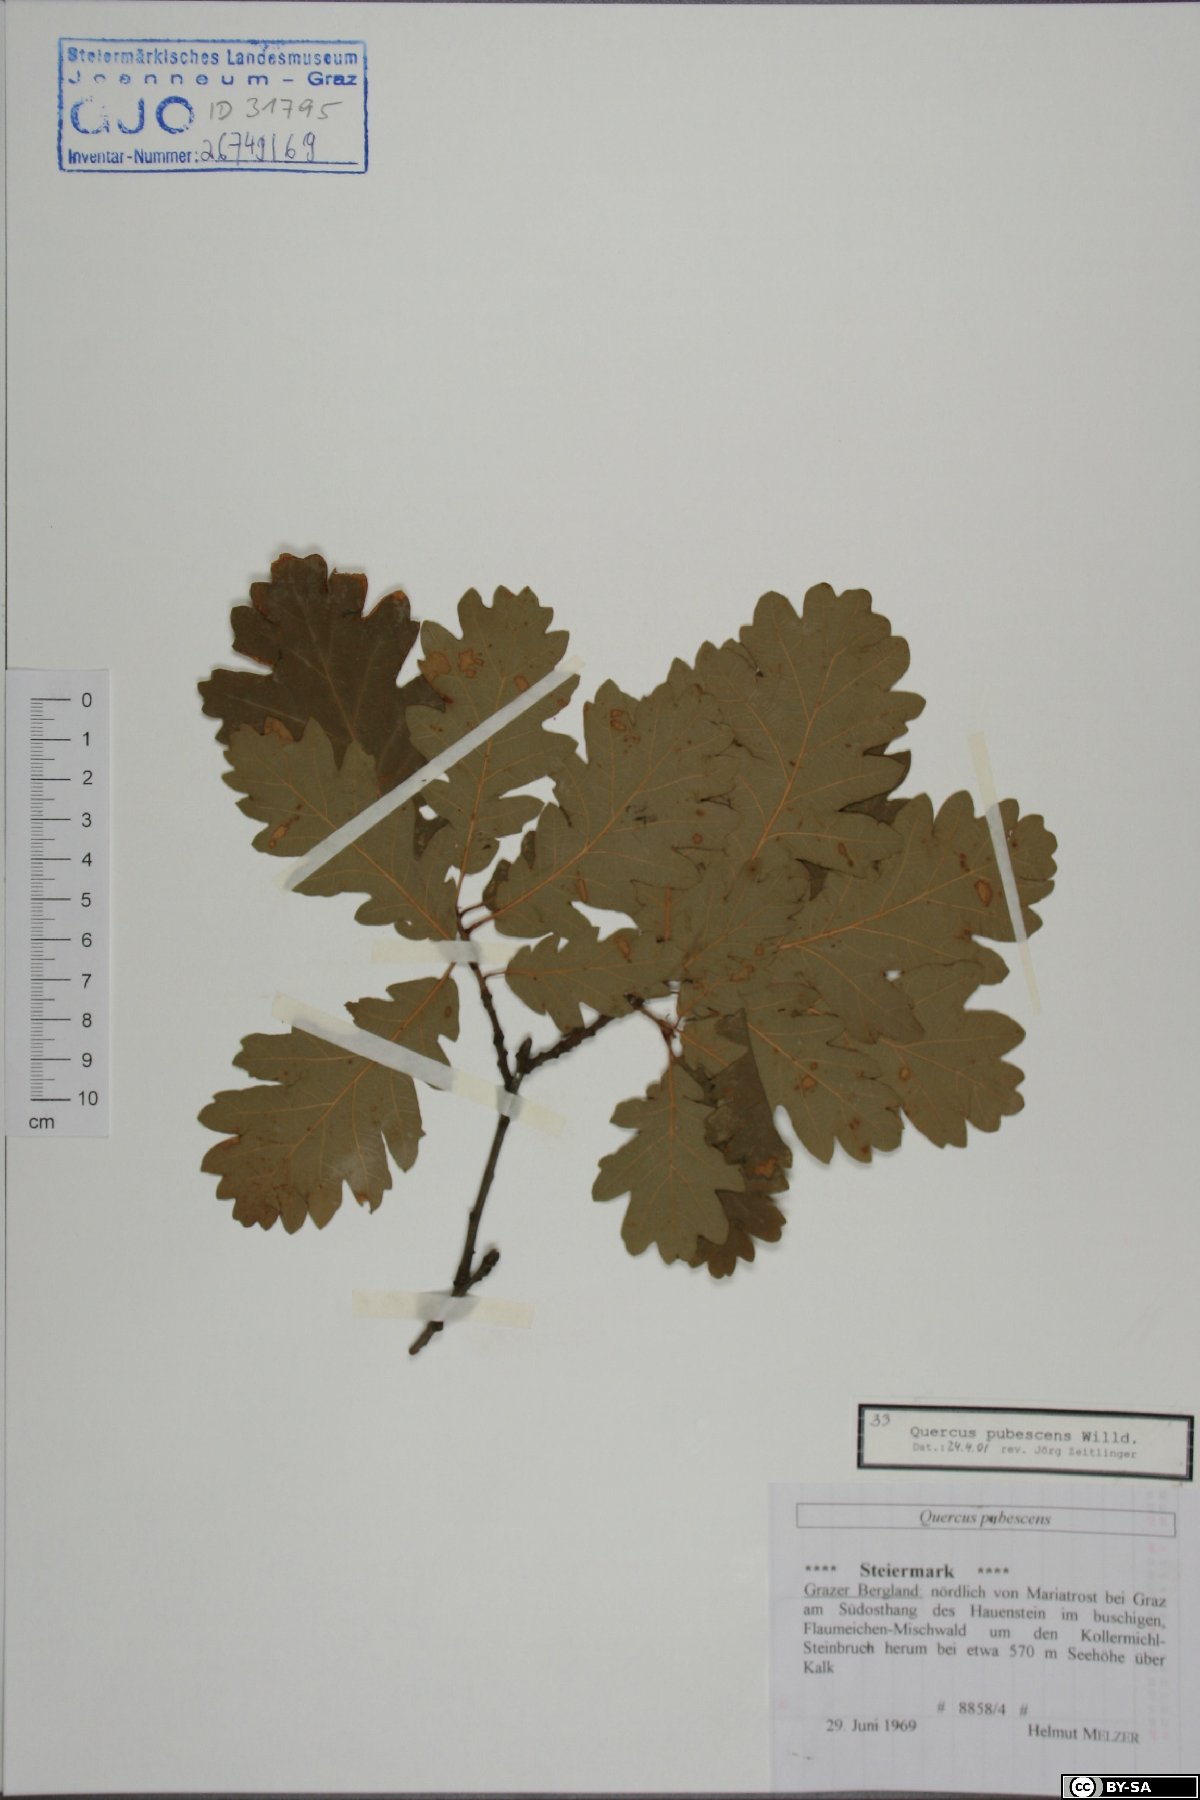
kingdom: Plantae
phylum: Tracheophyta
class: Magnoliopsida
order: Fagales
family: Fagaceae
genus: Quercus
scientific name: Quercus pubescens
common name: Downy oak
